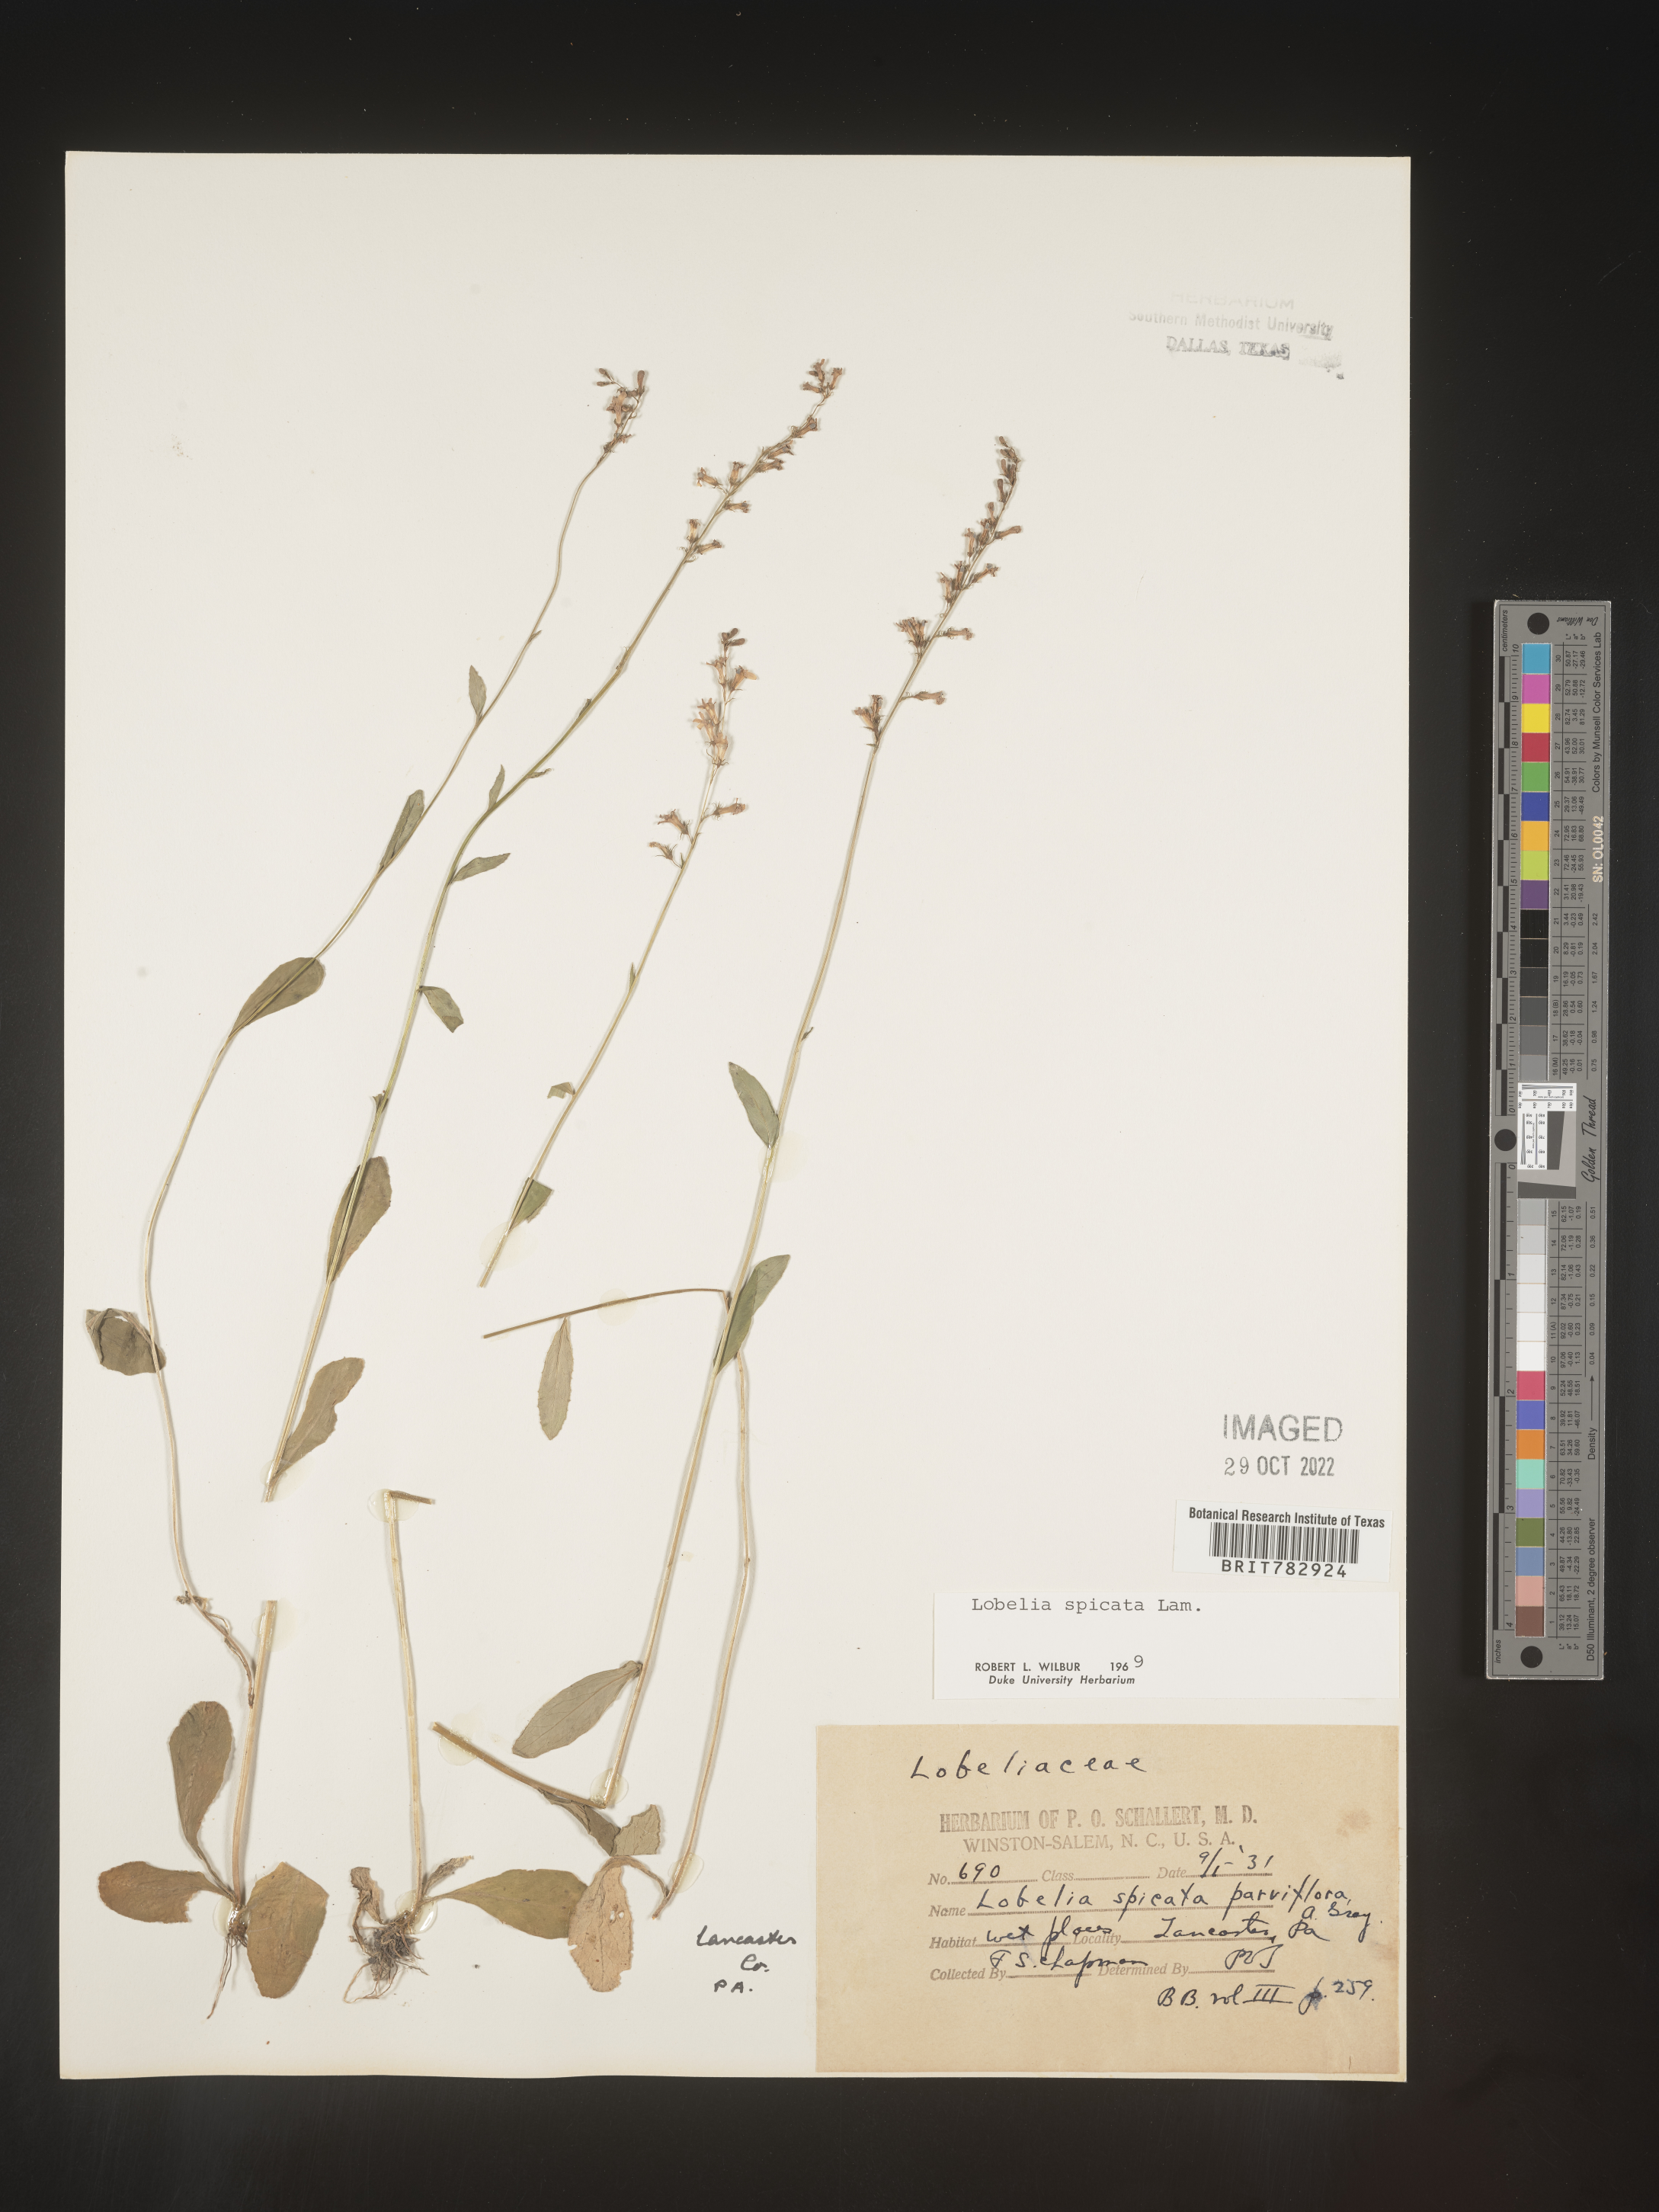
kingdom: Plantae
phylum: Tracheophyta
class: Magnoliopsida
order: Asterales
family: Campanulaceae
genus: Lobelia
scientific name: Lobelia spicata
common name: Pale-spike lobelia
